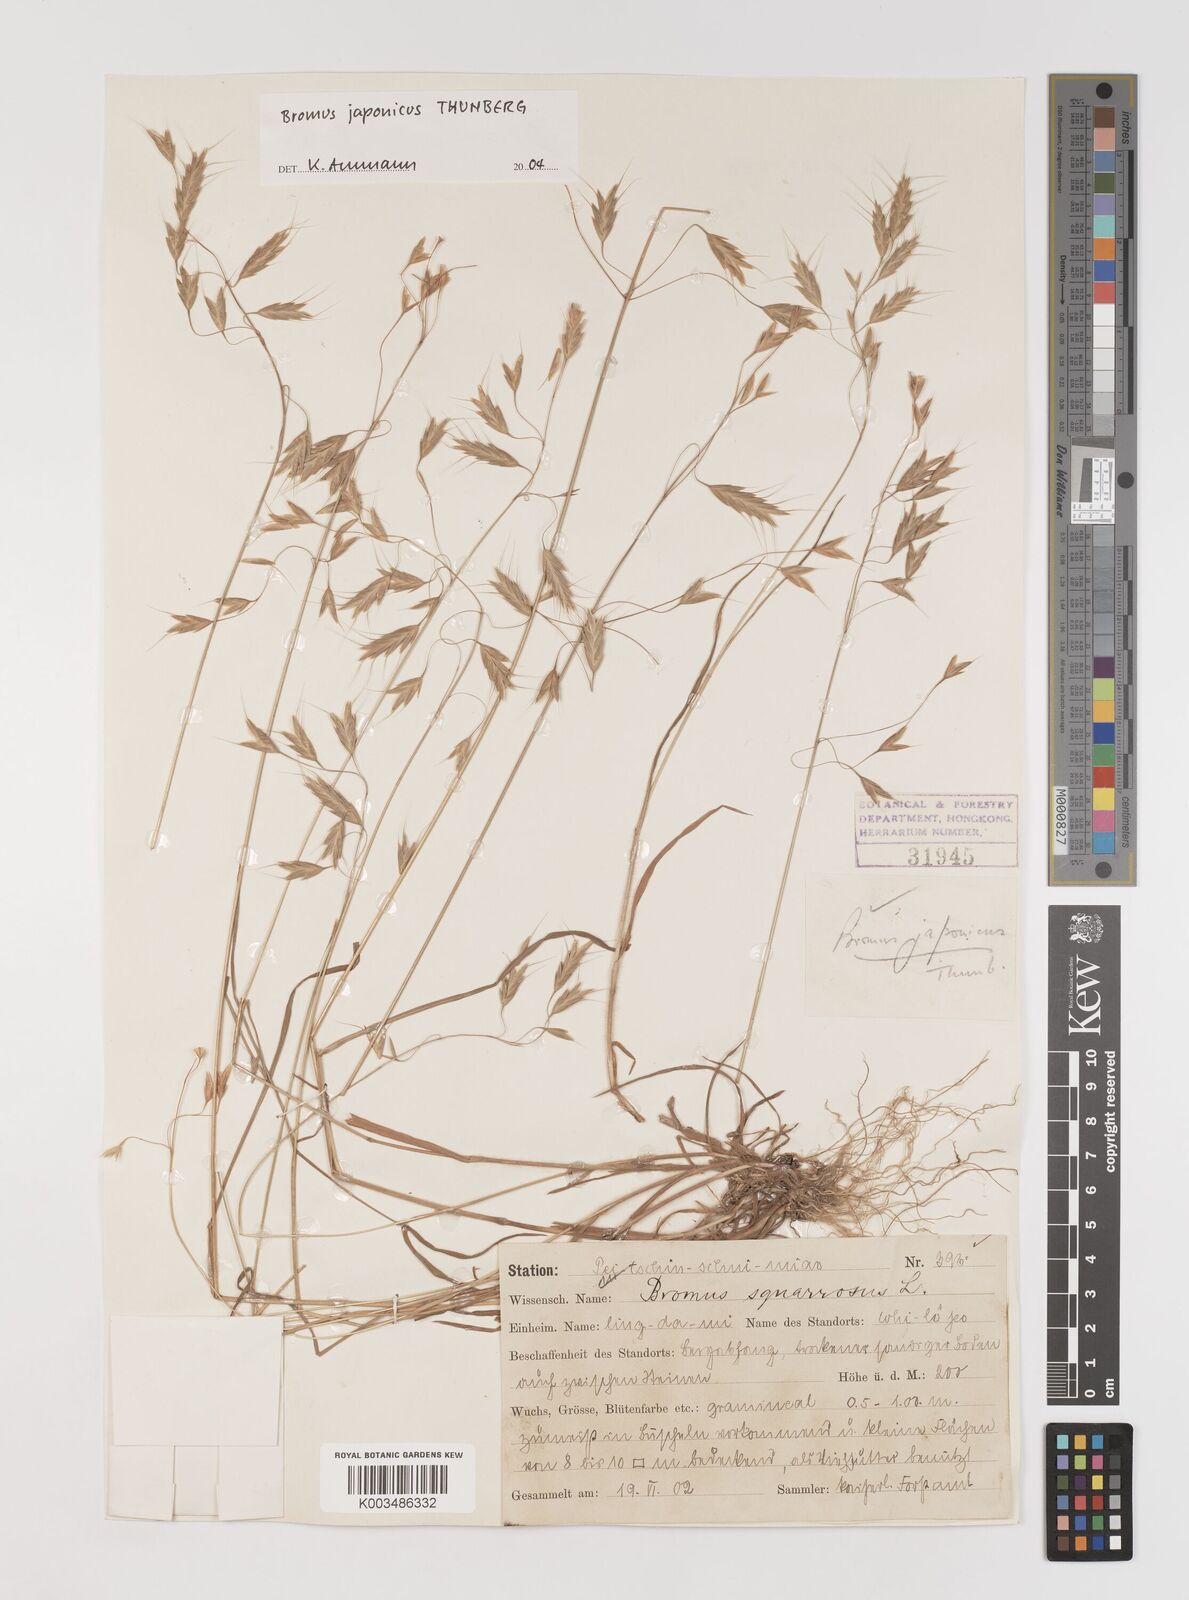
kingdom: Plantae
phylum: Tracheophyta
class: Liliopsida
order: Poales
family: Poaceae
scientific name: Poaceae
